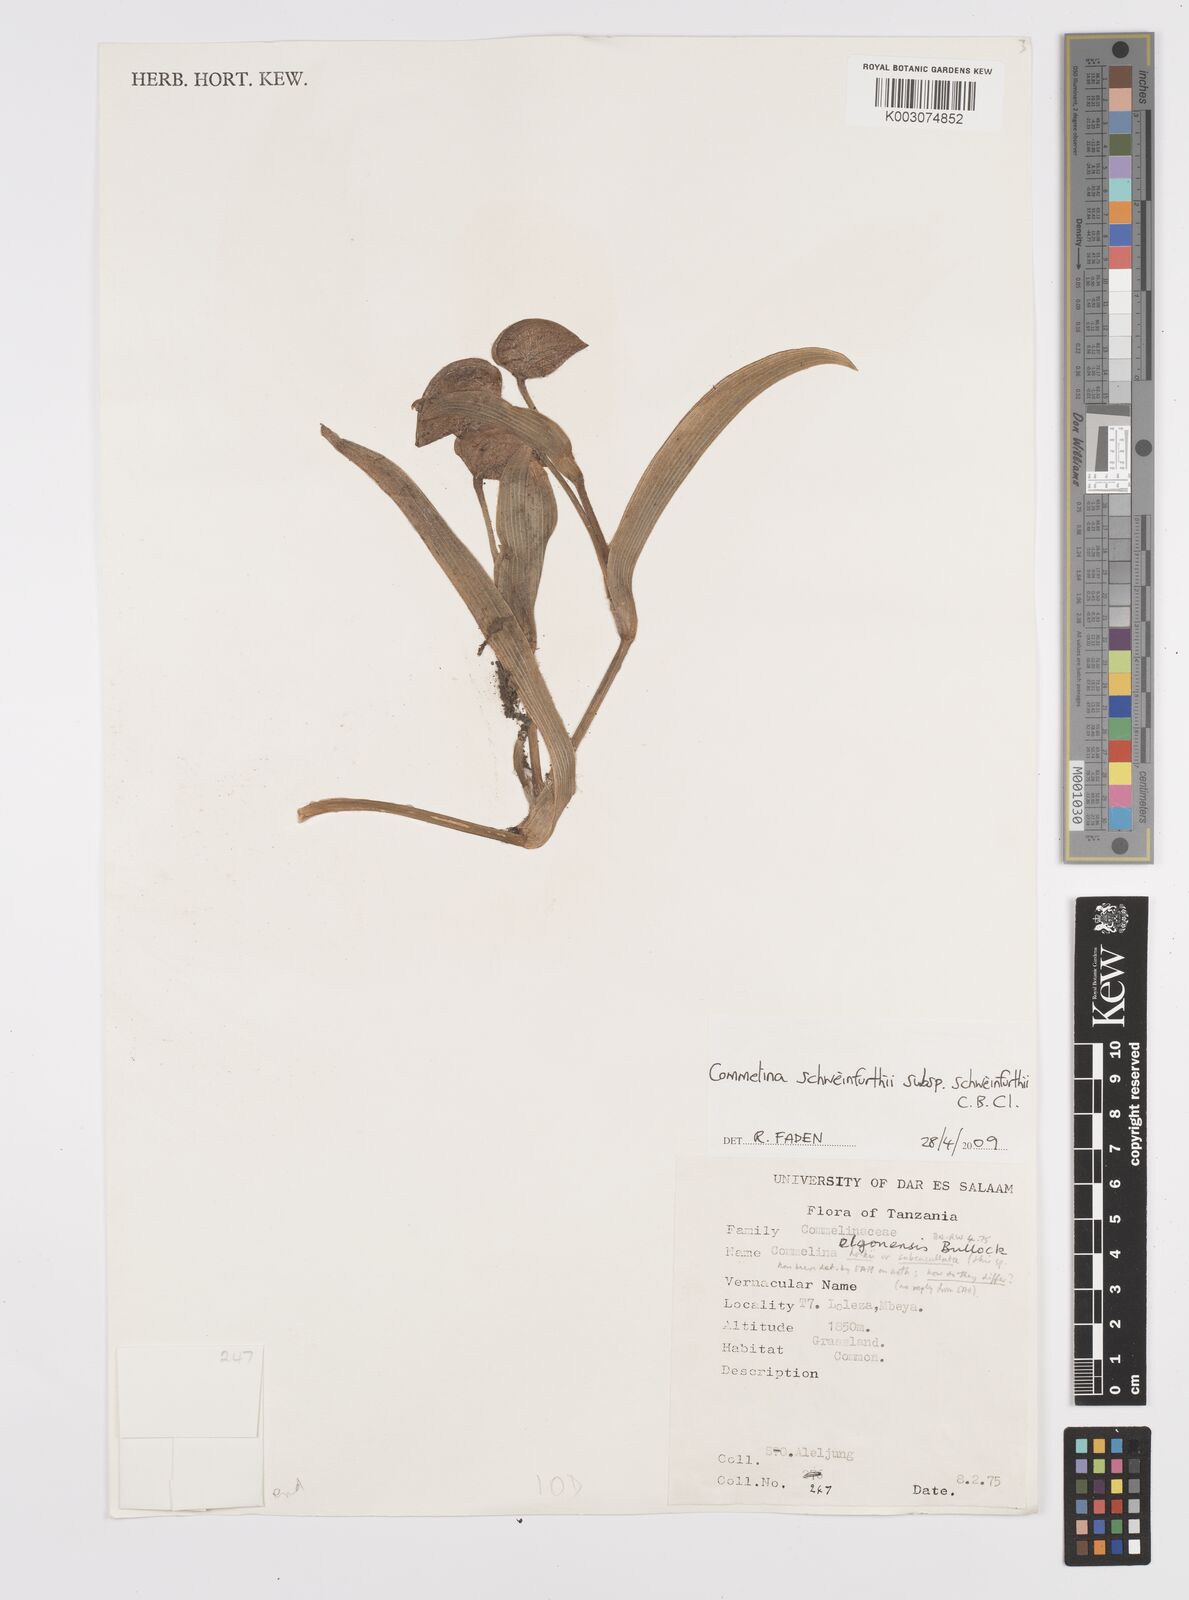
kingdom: Plantae
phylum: Tracheophyta
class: Liliopsida
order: Commelinales
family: Commelinaceae
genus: Commelina
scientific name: Commelina schweinfurthii
